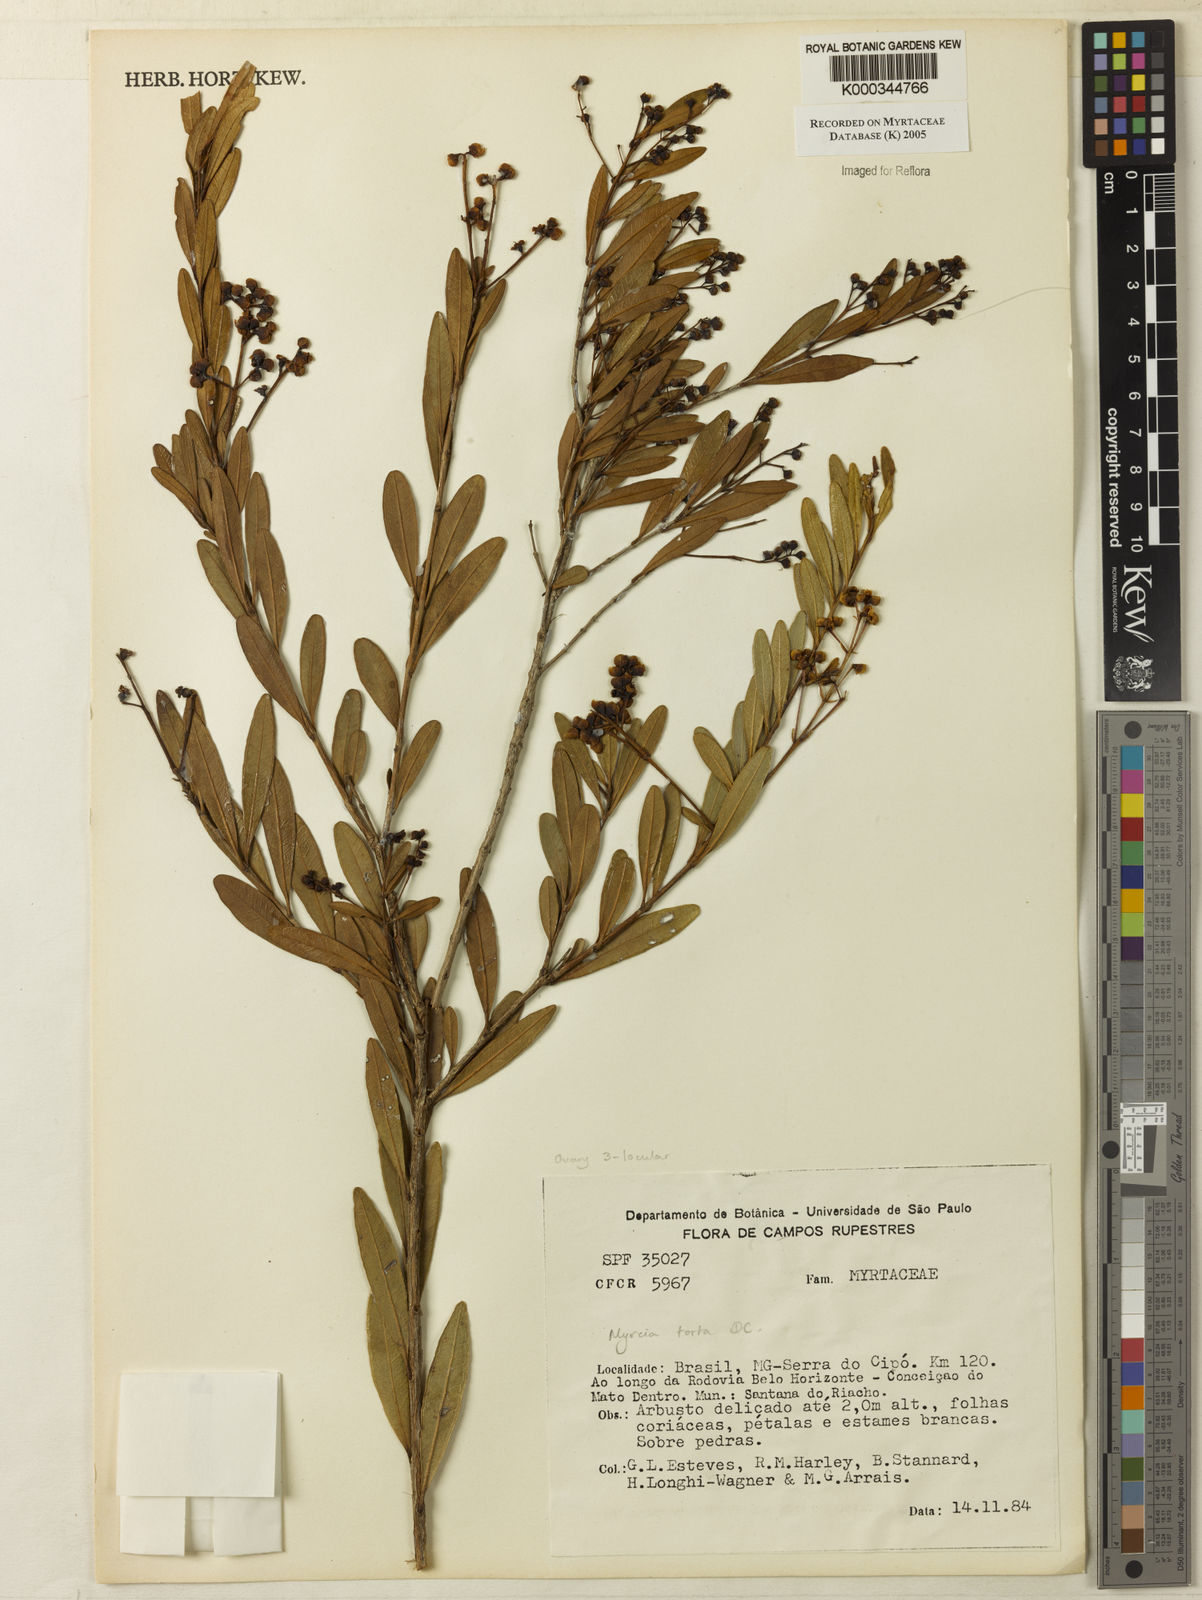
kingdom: Plantae
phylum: Tracheophyta
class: Magnoliopsida
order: Myrtales
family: Myrtaceae
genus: Myrcia
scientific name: Myrcia guianensis
